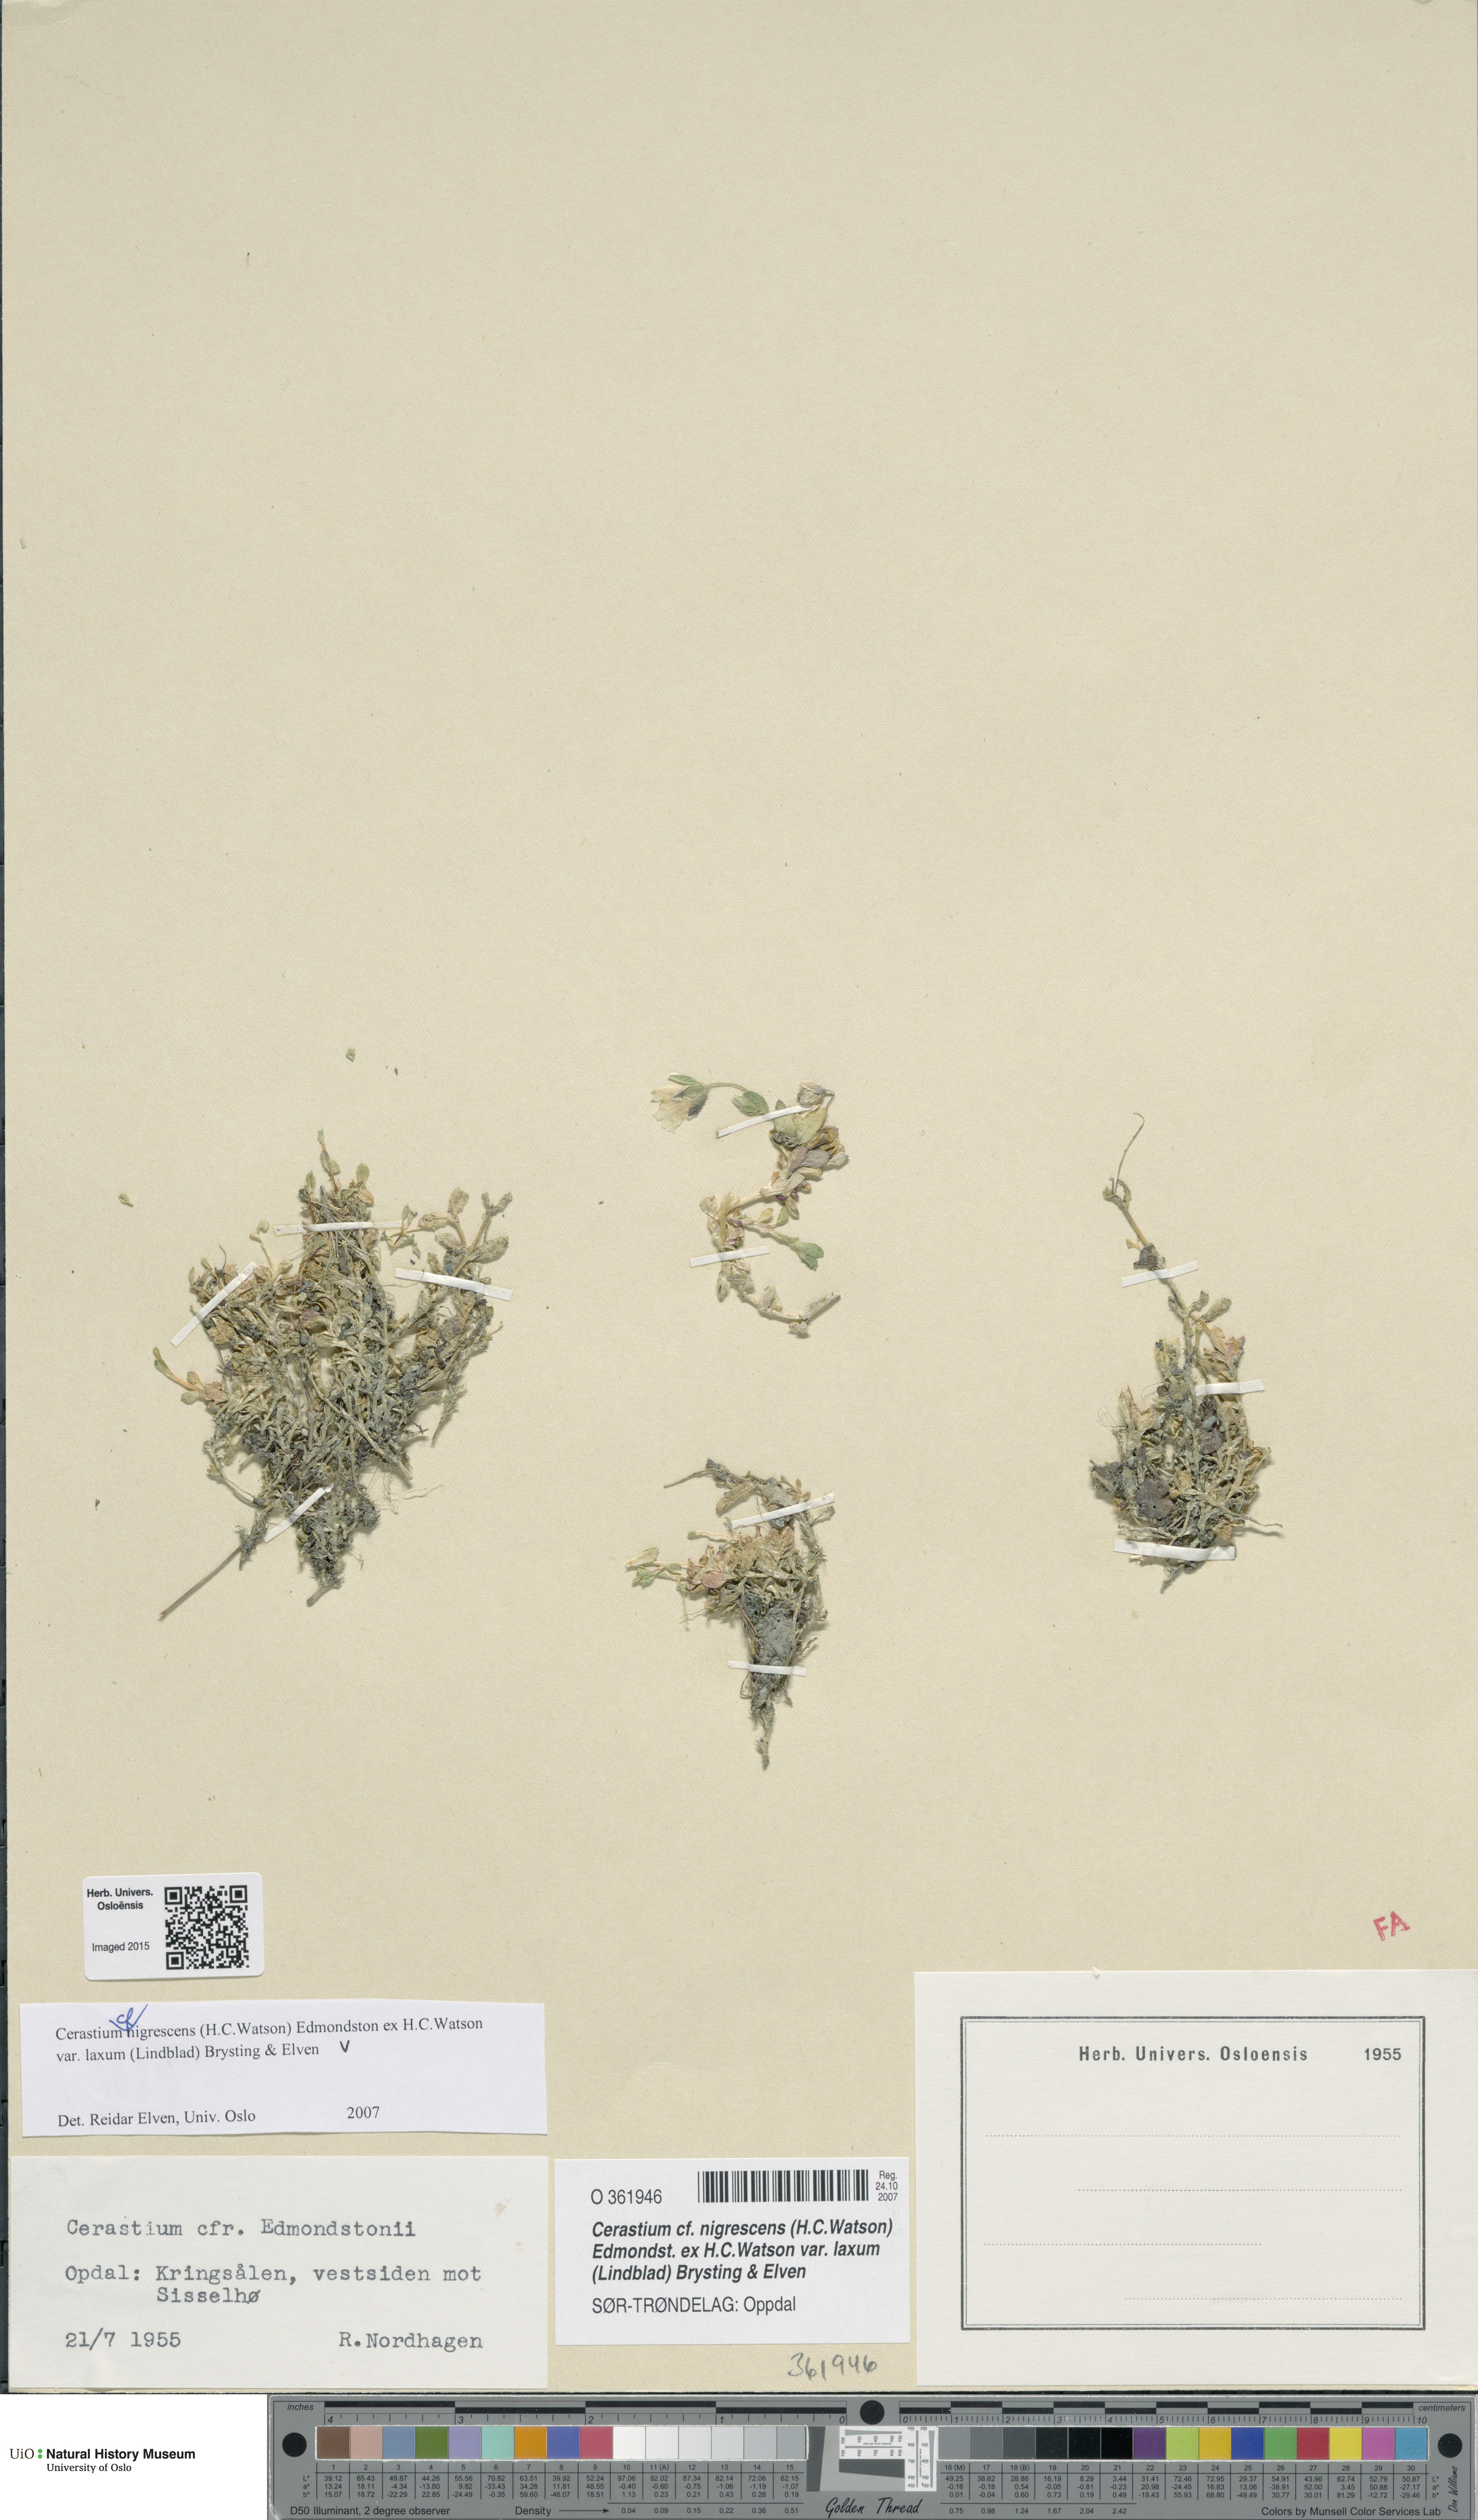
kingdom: Plantae
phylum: Tracheophyta
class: Magnoliopsida
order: Caryophyllales
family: Caryophyllaceae
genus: Cerastium
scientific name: Cerastium nigrescens
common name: Shetland mouse-ear
